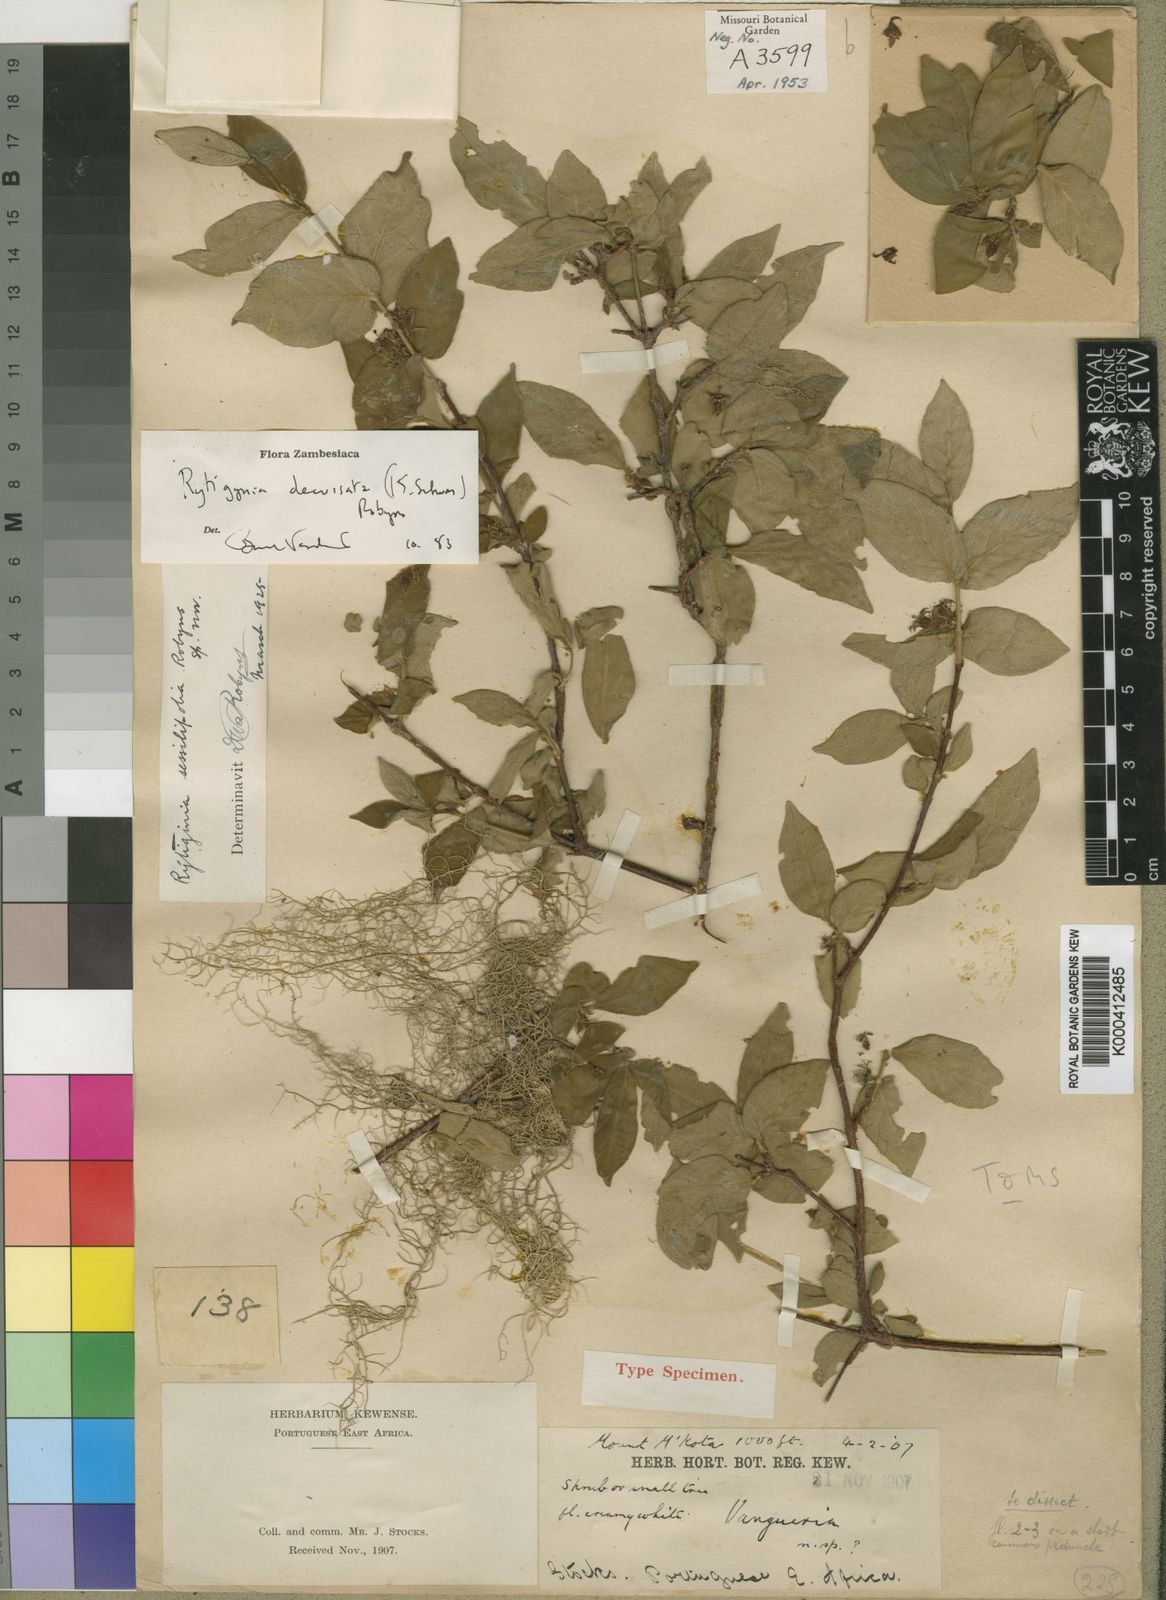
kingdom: Plantae
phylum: Tracheophyta
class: Magnoliopsida
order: Gentianales
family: Rubiaceae
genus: Rytigynia
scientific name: Rytigynia decussata
